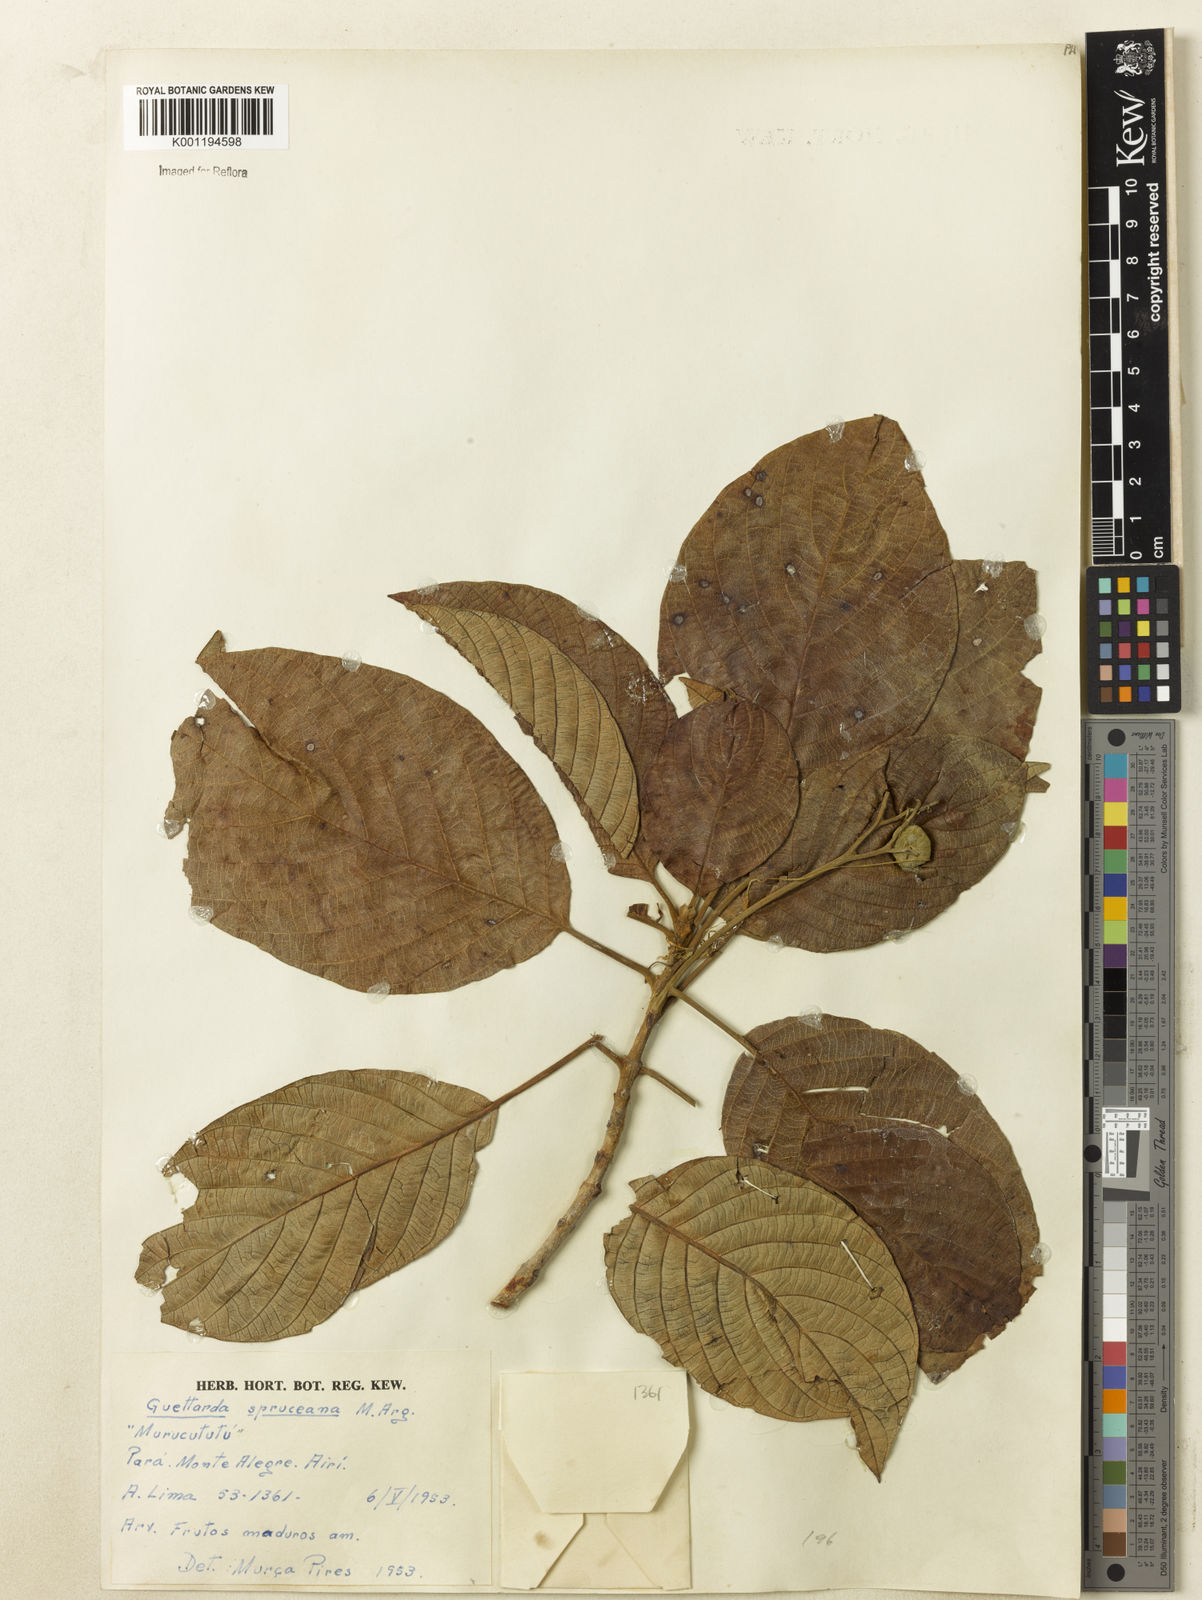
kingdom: Plantae
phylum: Tracheophyta
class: Magnoliopsida
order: Gentianales
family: Rubiaceae
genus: Guettarda
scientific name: Guettarda
